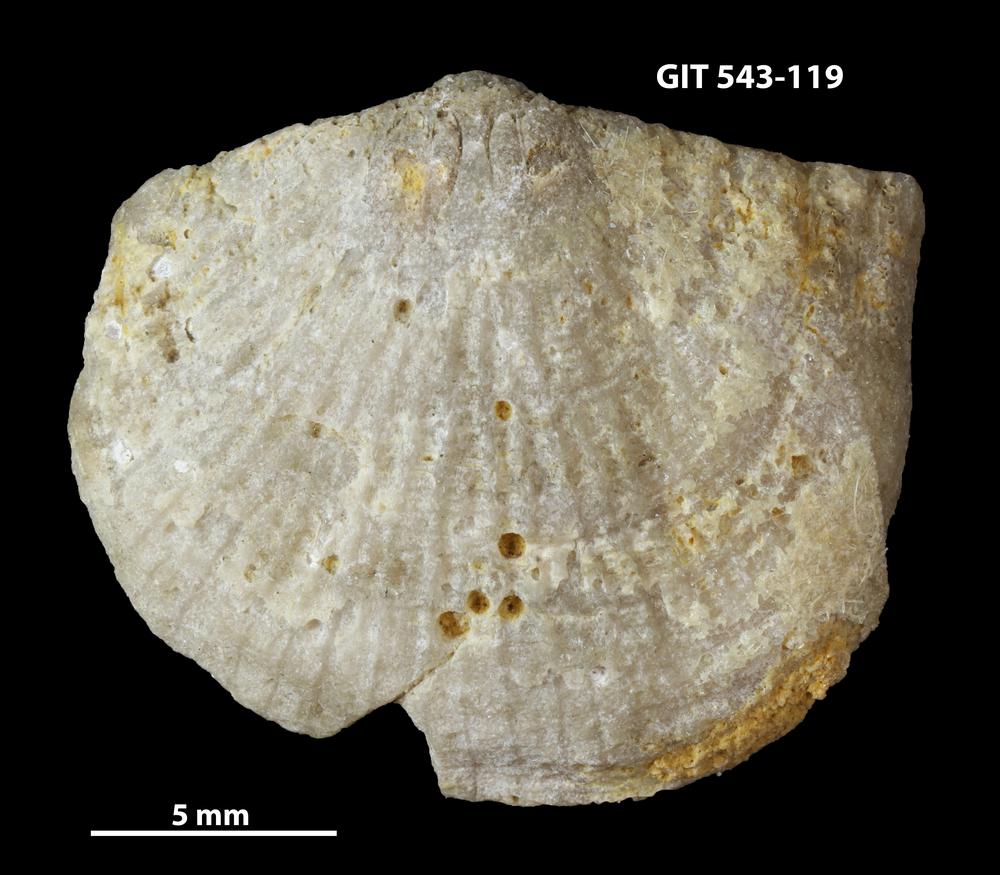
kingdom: Animalia
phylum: Brachiopoda
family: Gonambonitidae
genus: Estlandia
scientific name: Estlandia Orthisina marginata
